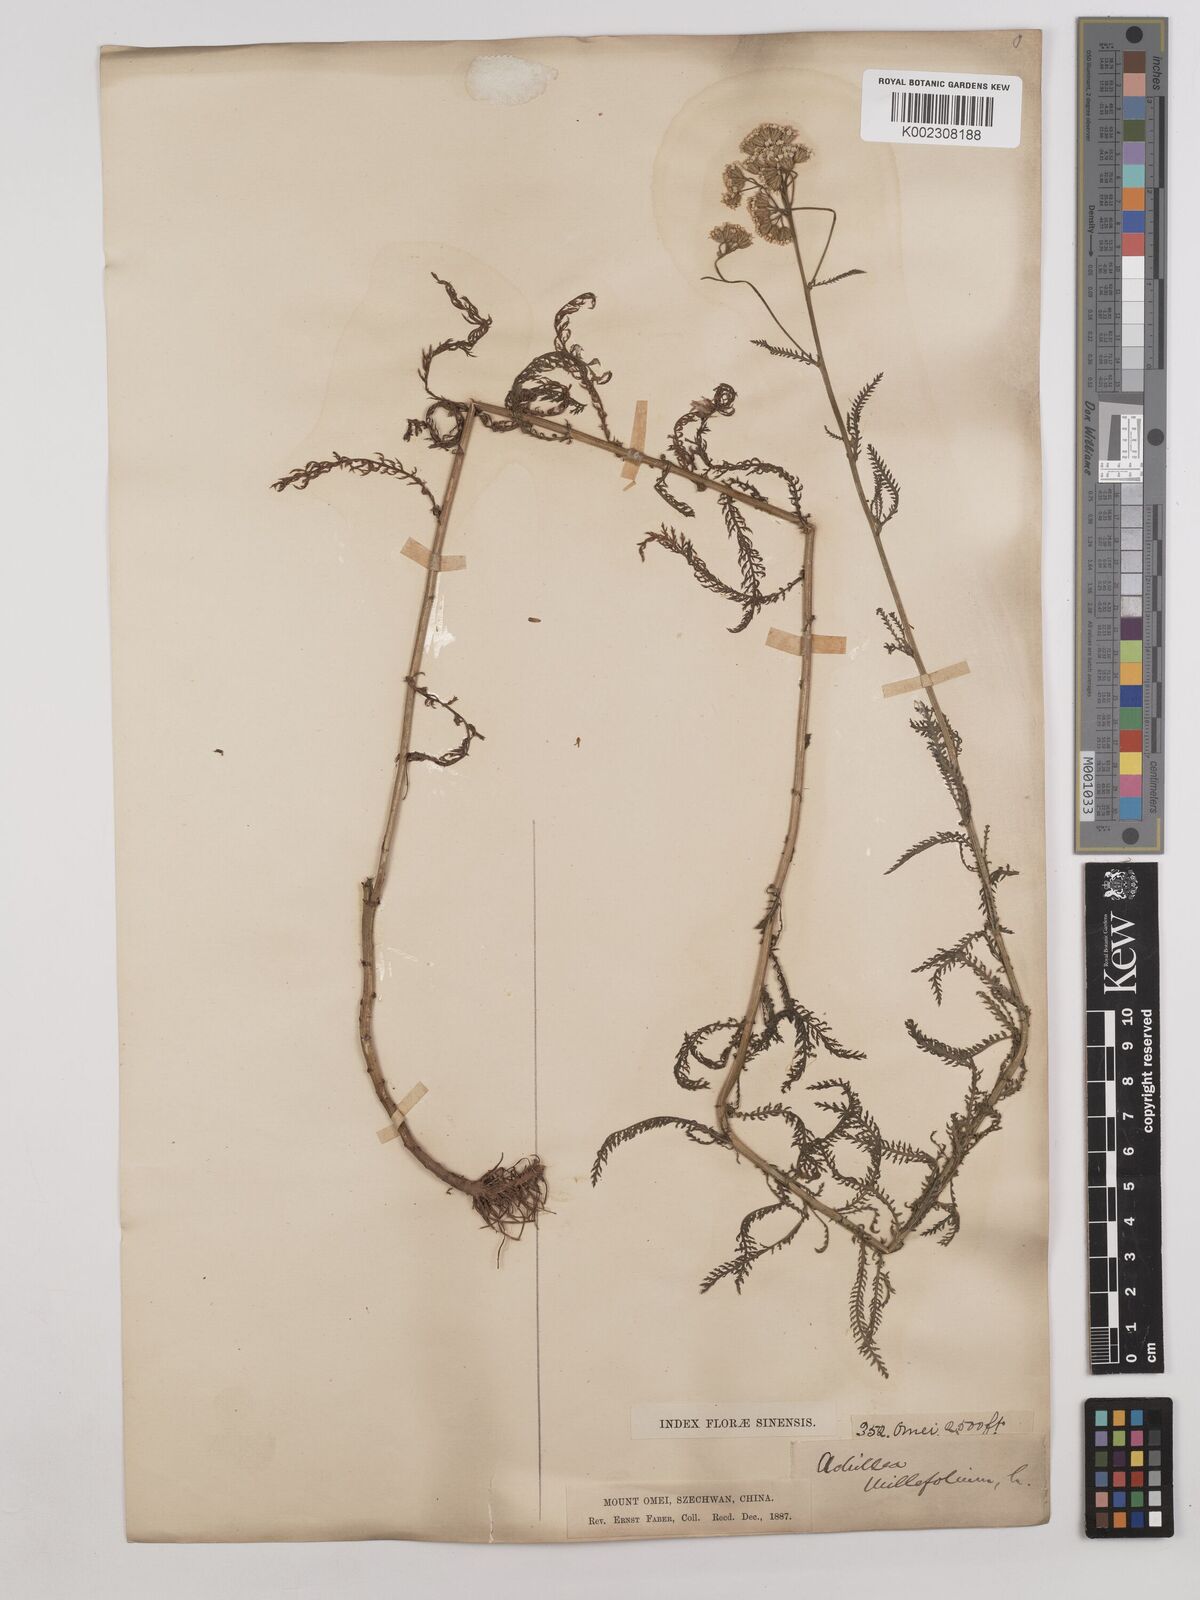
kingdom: Plantae
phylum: Tracheophyta
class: Magnoliopsida
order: Asterales
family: Asteraceae
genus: Achillea
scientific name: Achillea alpina
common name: Siberian yarrow
